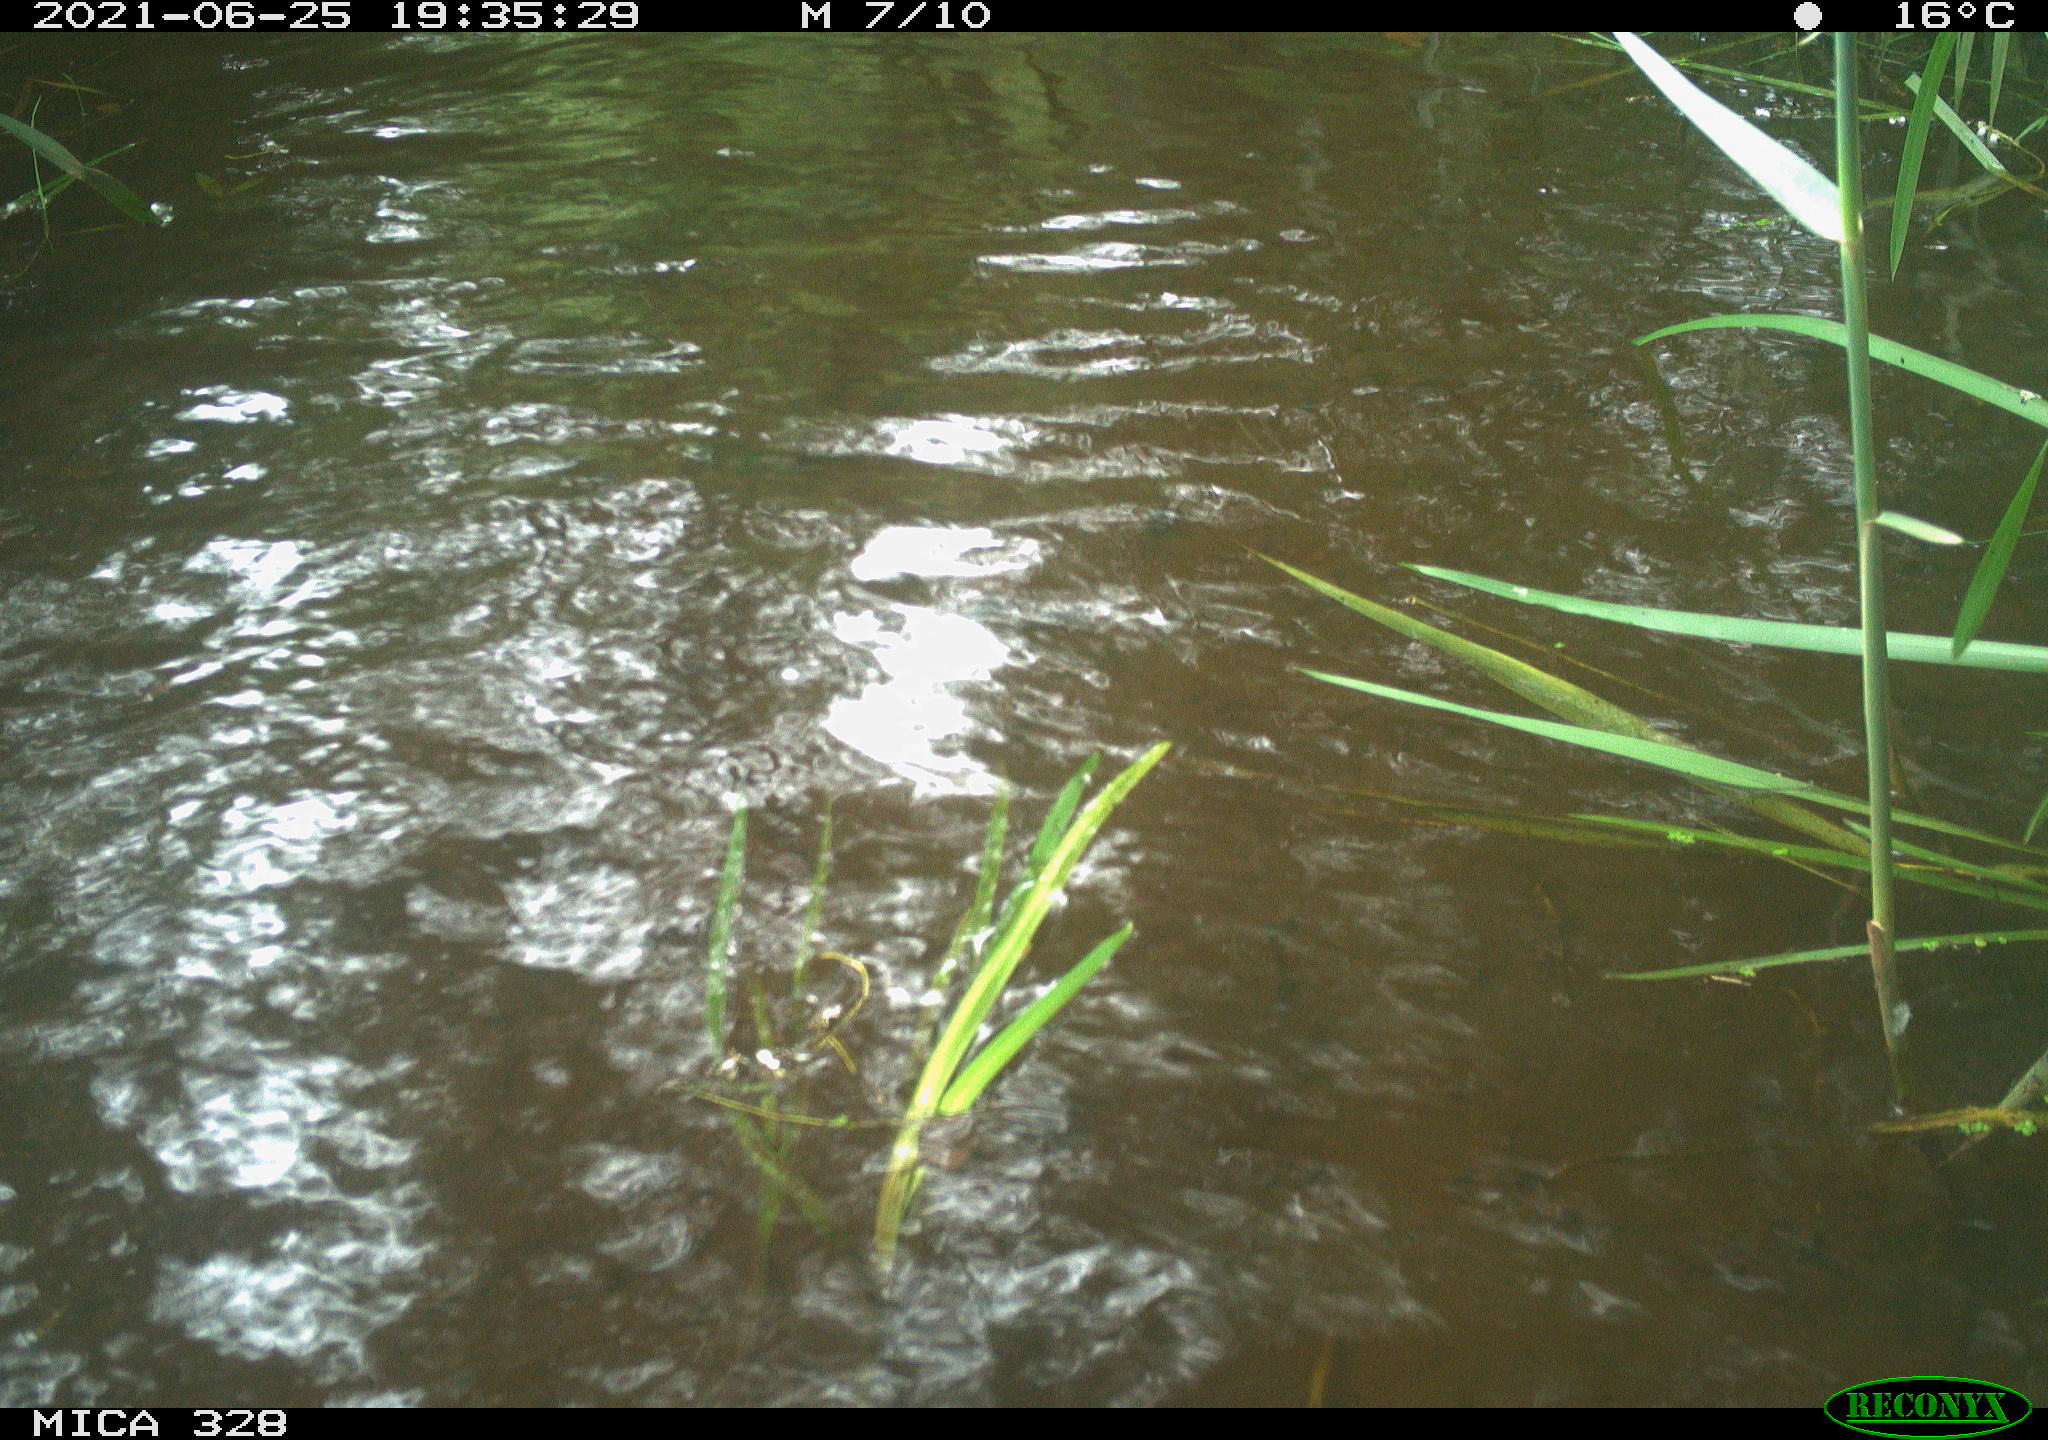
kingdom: Animalia
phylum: Chordata
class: Mammalia
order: Rodentia
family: Cricetidae
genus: Ondatra
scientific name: Ondatra zibethicus
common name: Muskrat
